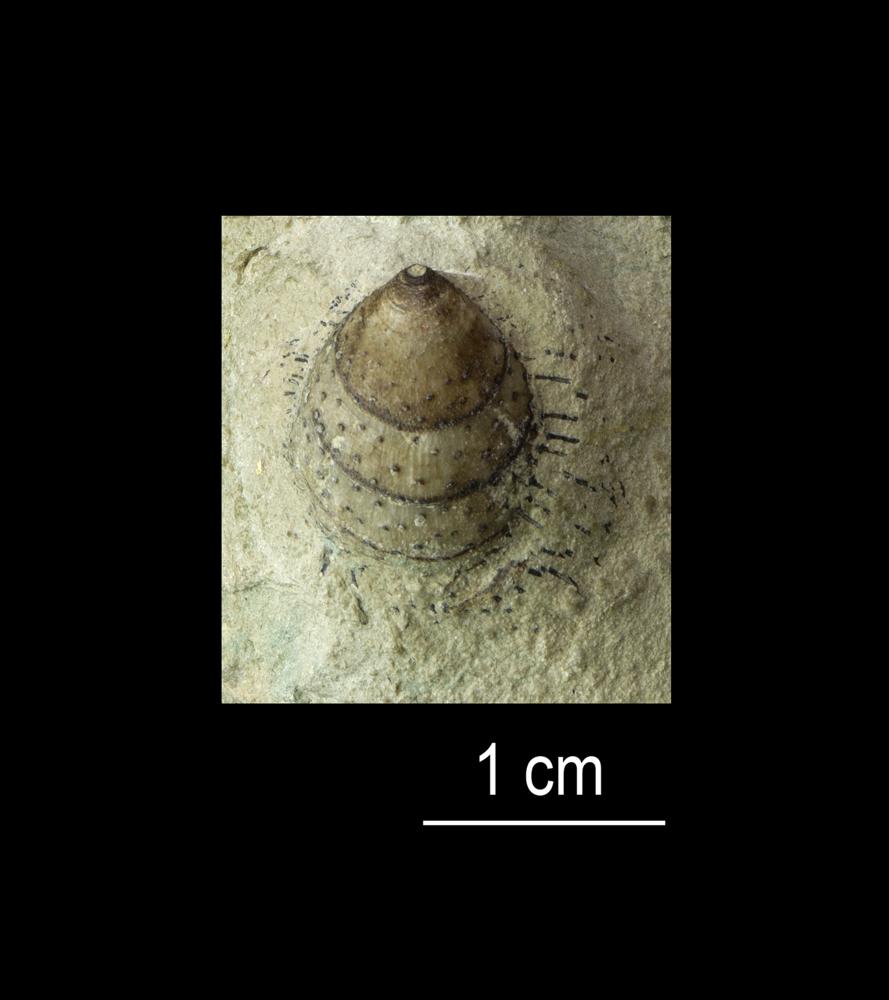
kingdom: Animalia
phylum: Brachiopoda
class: Lingulata
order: Siphonotretida
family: Siphonotretidae
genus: Siphonotreta
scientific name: Siphonotreta
